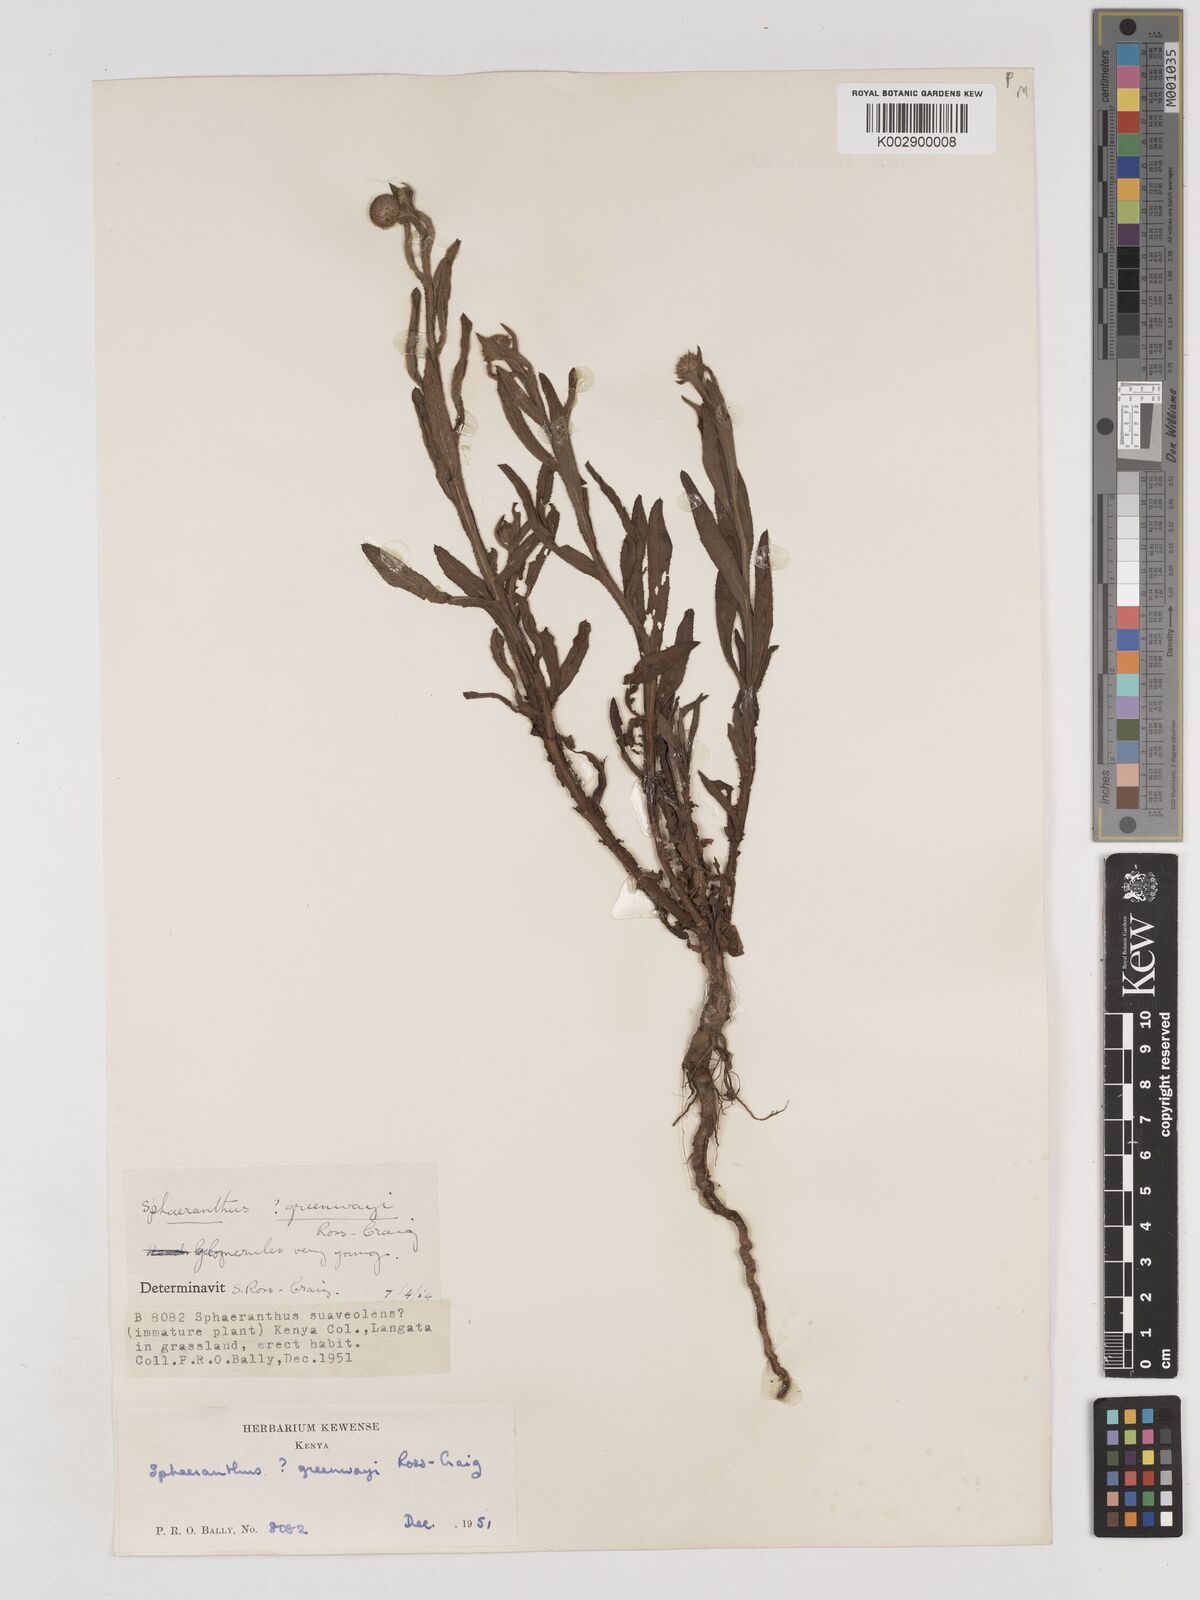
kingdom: Plantae
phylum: Tracheophyta
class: Magnoliopsida
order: Asterales
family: Asteraceae
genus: Sphaeranthus
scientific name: Sphaeranthus greenwayi
